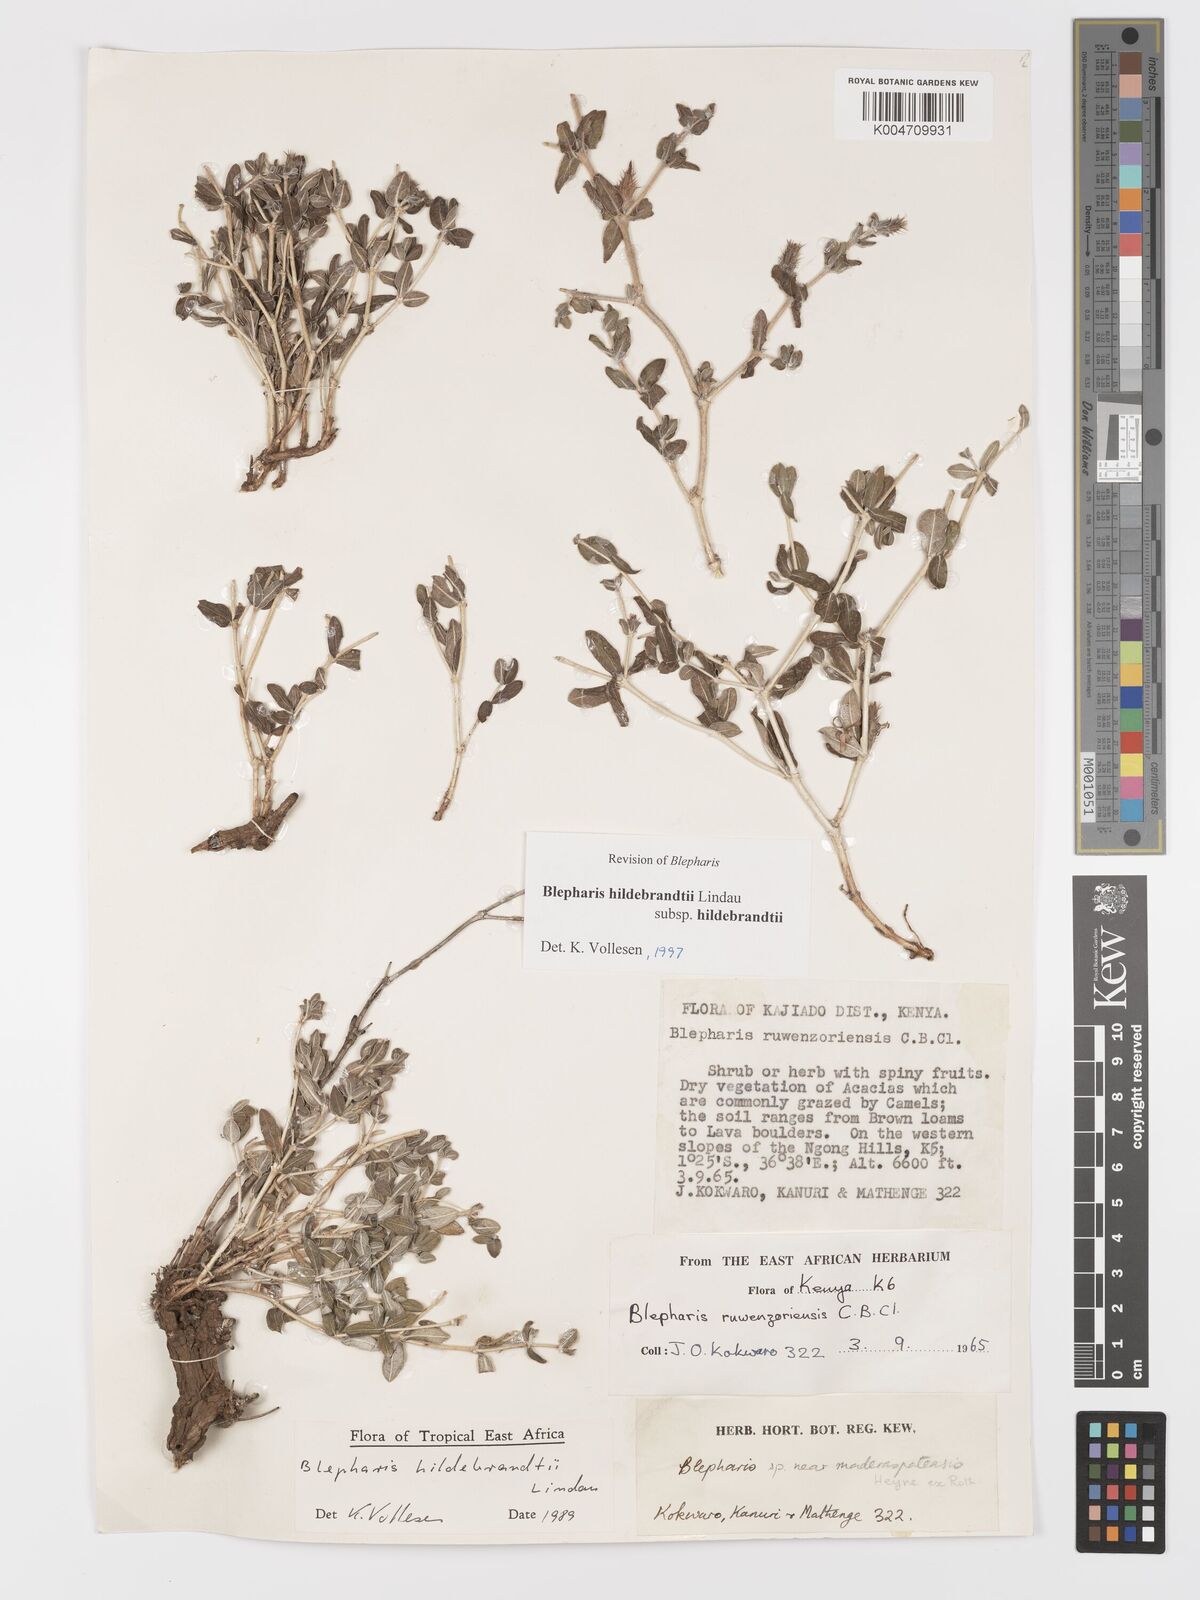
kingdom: Plantae
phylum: Tracheophyta
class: Magnoliopsida
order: Lamiales
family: Acanthaceae
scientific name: Acanthaceae
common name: Acanthaceae
